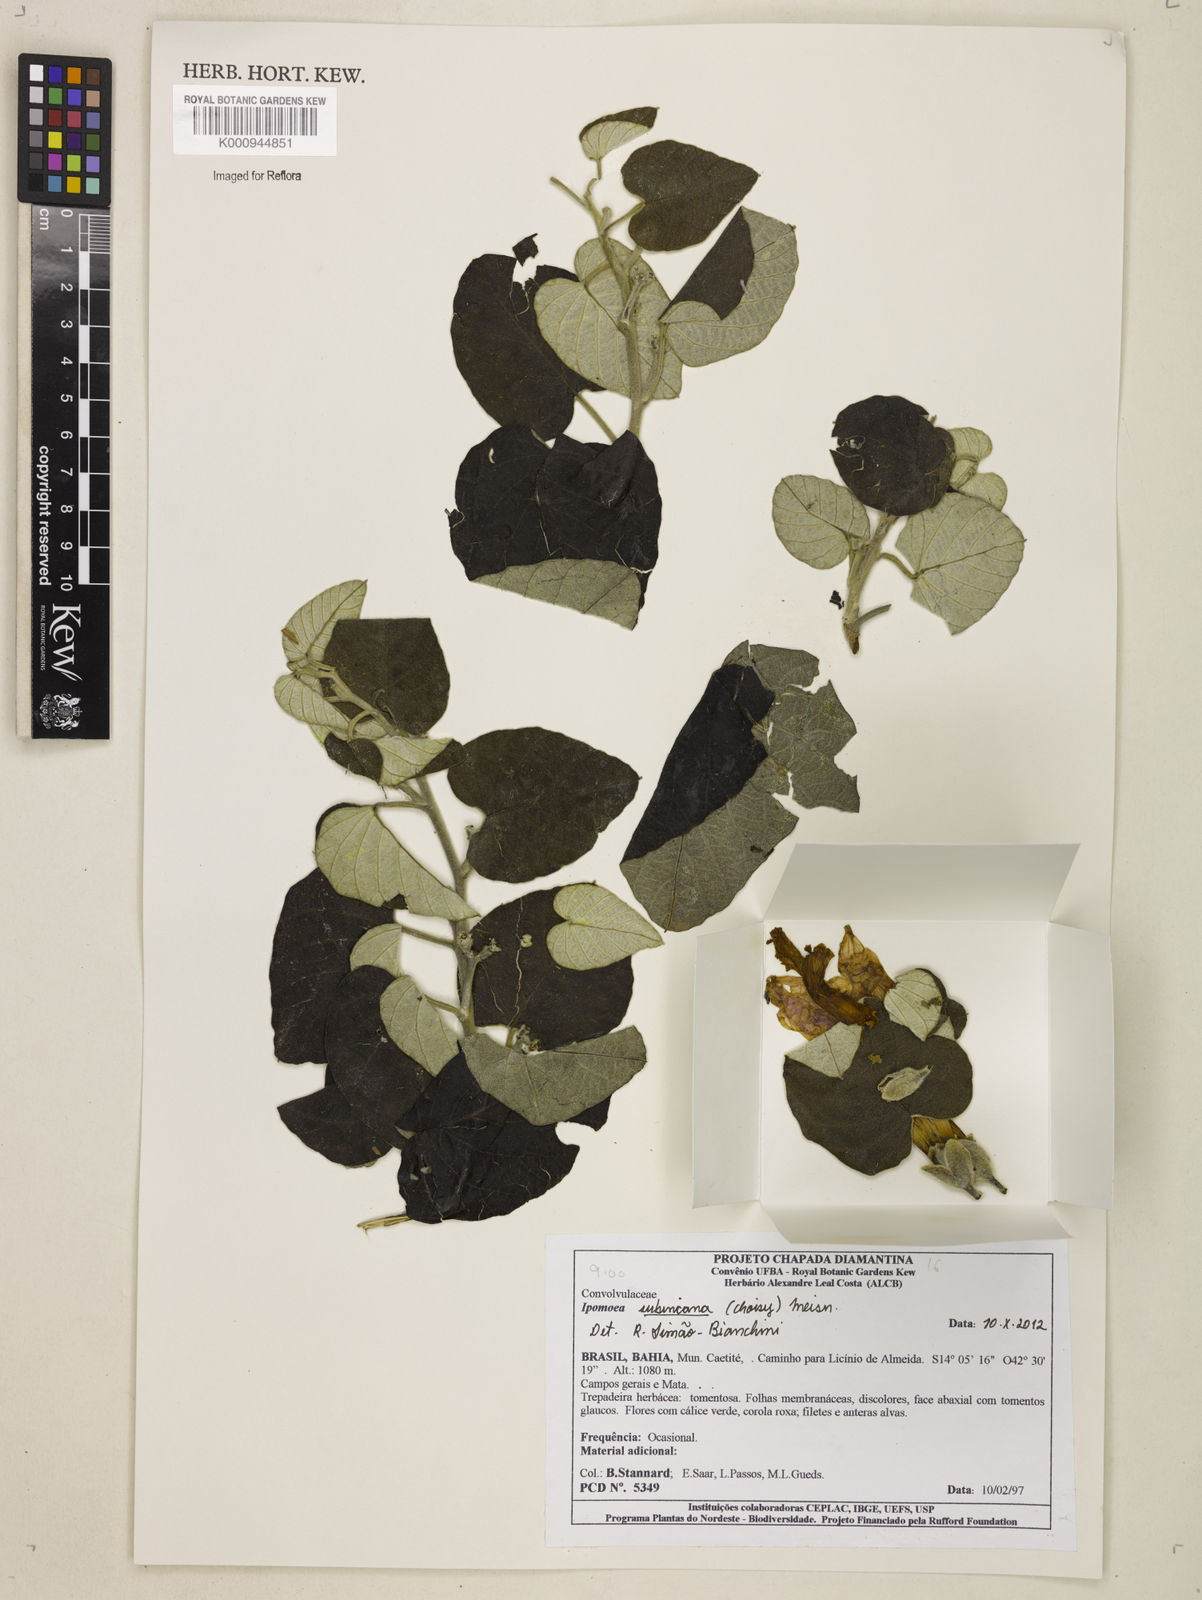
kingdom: Plantae
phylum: Tracheophyta
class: Magnoliopsida
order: Solanales
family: Convolvulaceae
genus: Ipomoea
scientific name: Ipomoea brasiliana
